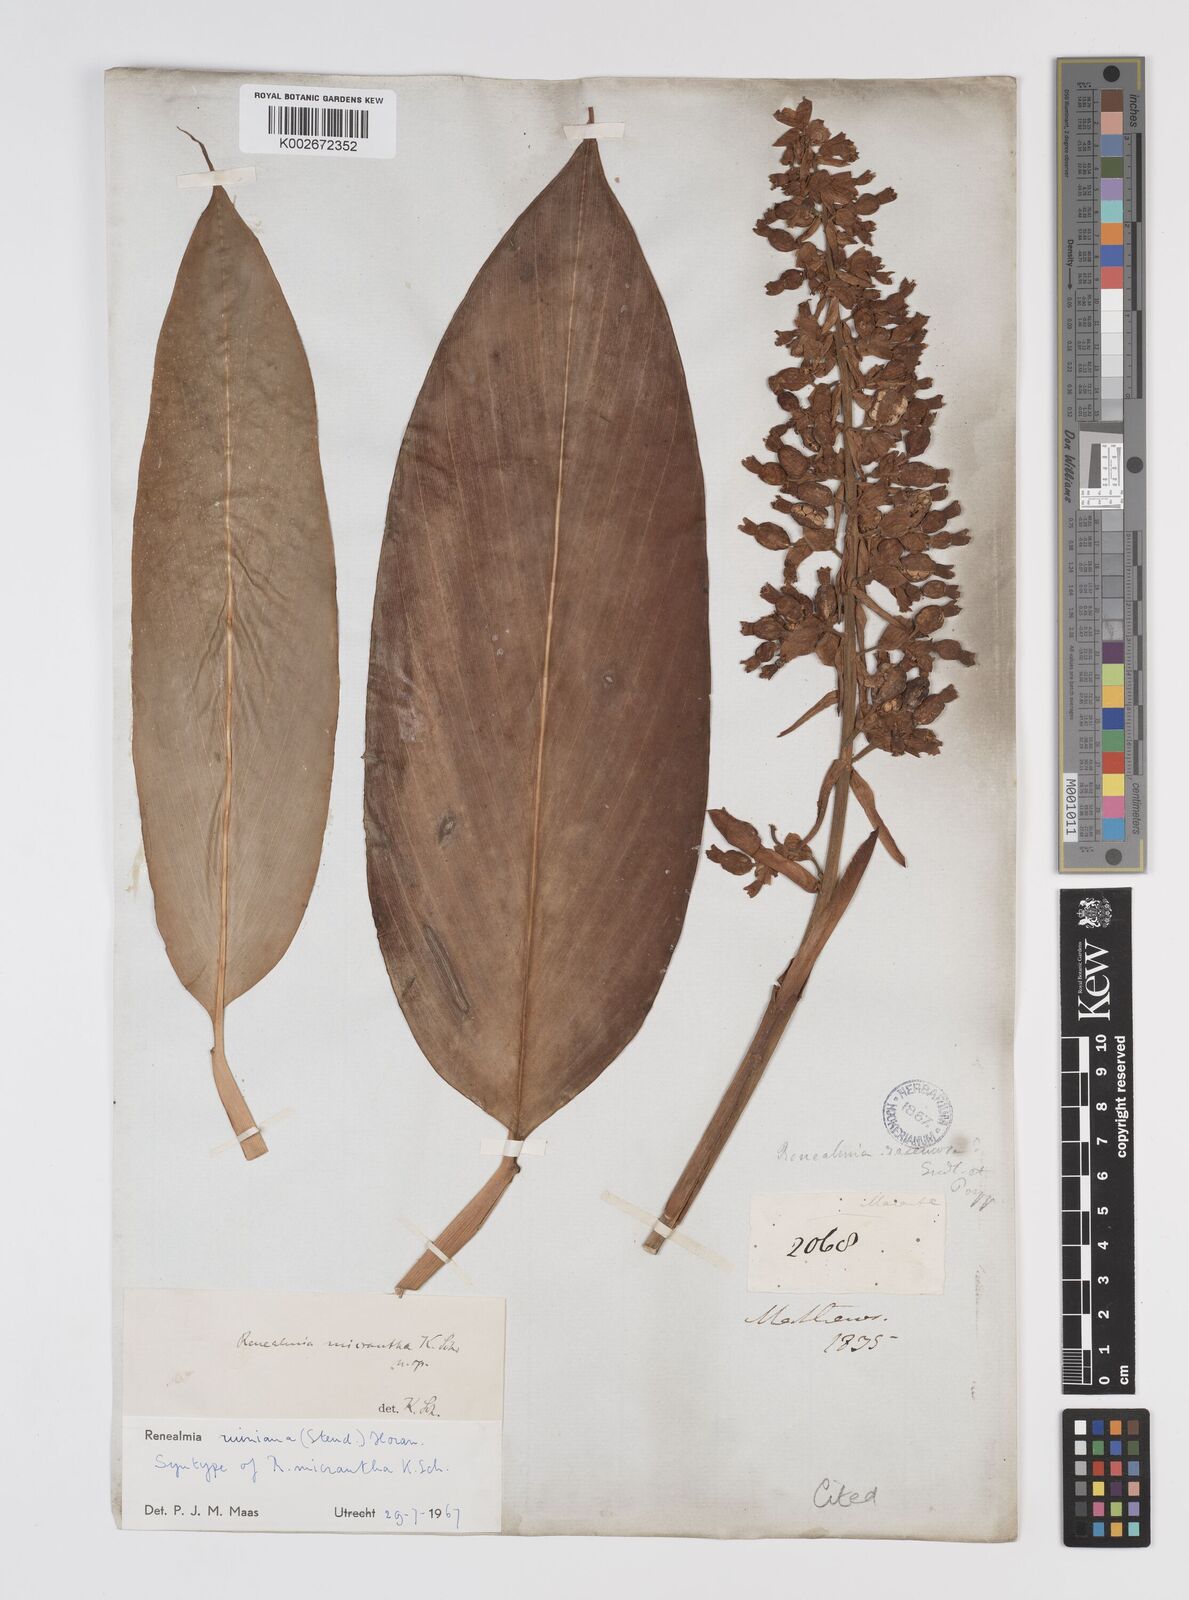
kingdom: Plantae
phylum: Tracheophyta
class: Liliopsida
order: Zingiberales
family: Zingiberaceae
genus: Renealmia
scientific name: Renealmia racemosa
